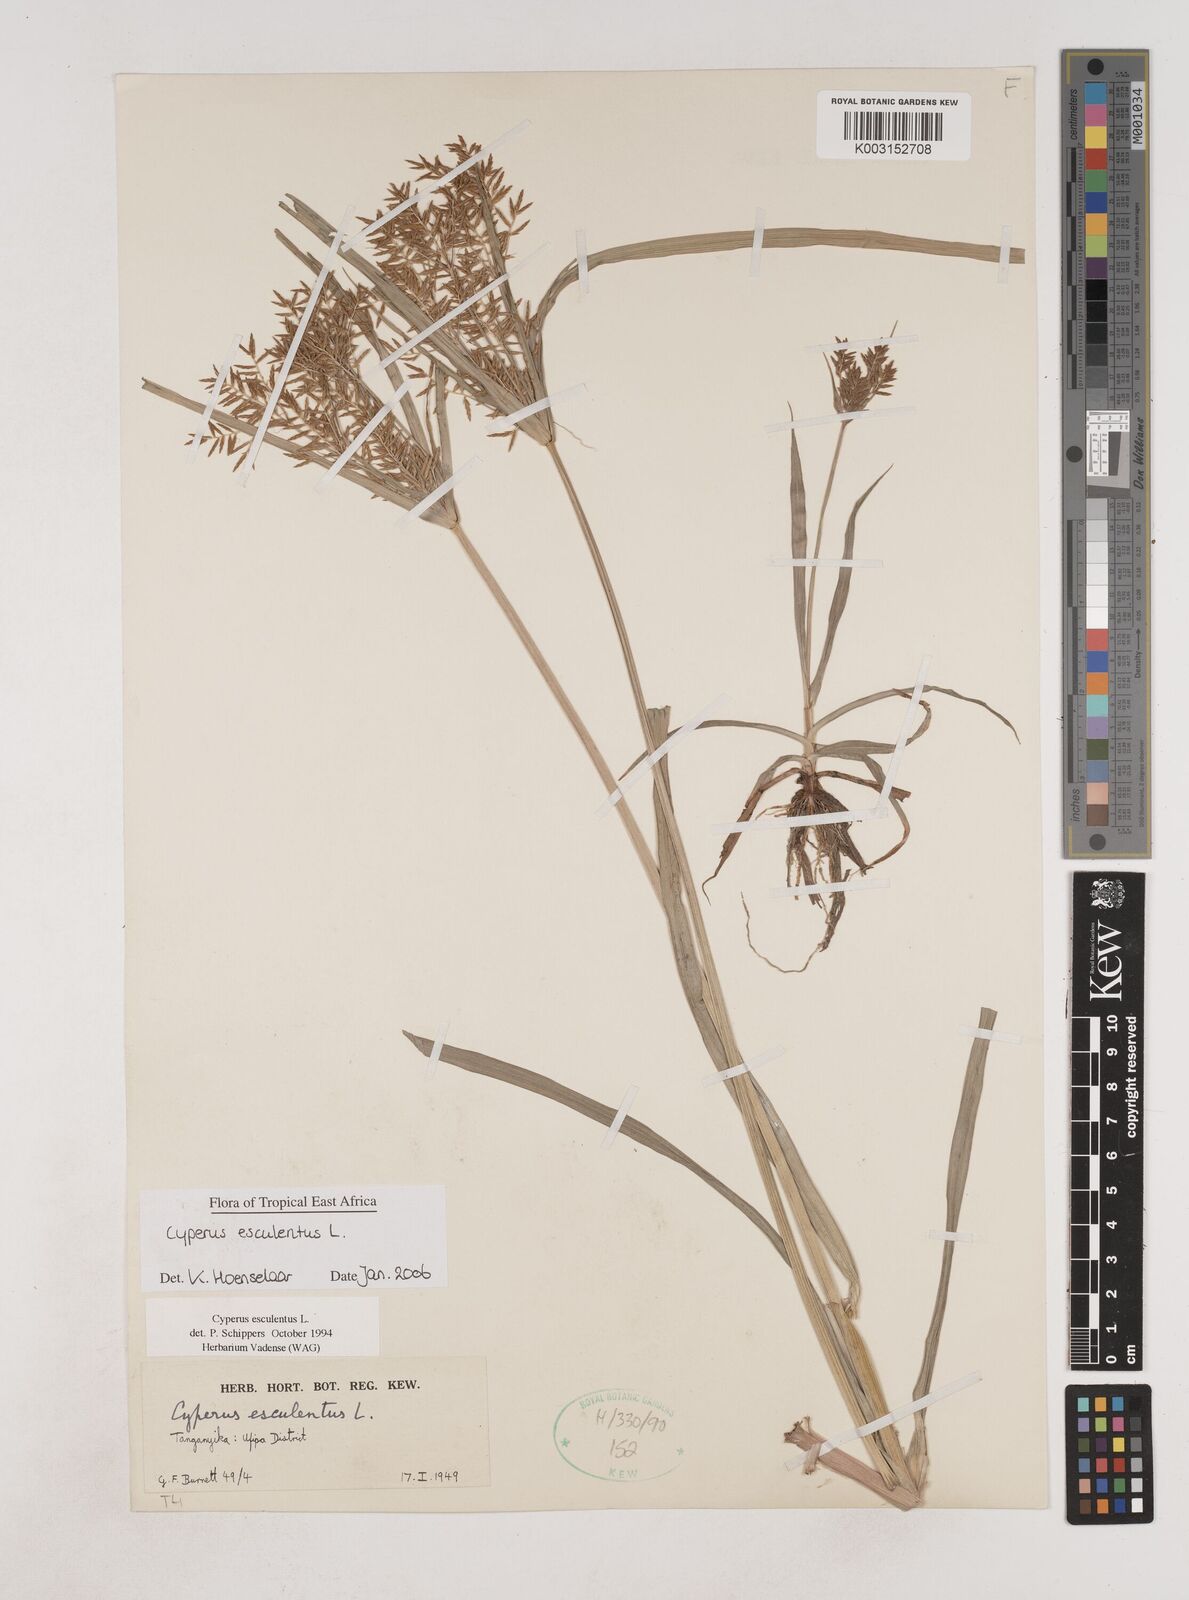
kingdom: Plantae
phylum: Tracheophyta
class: Liliopsida
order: Poales
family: Cyperaceae
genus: Cyperus
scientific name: Cyperus esculentus
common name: Yellow nutsedge
